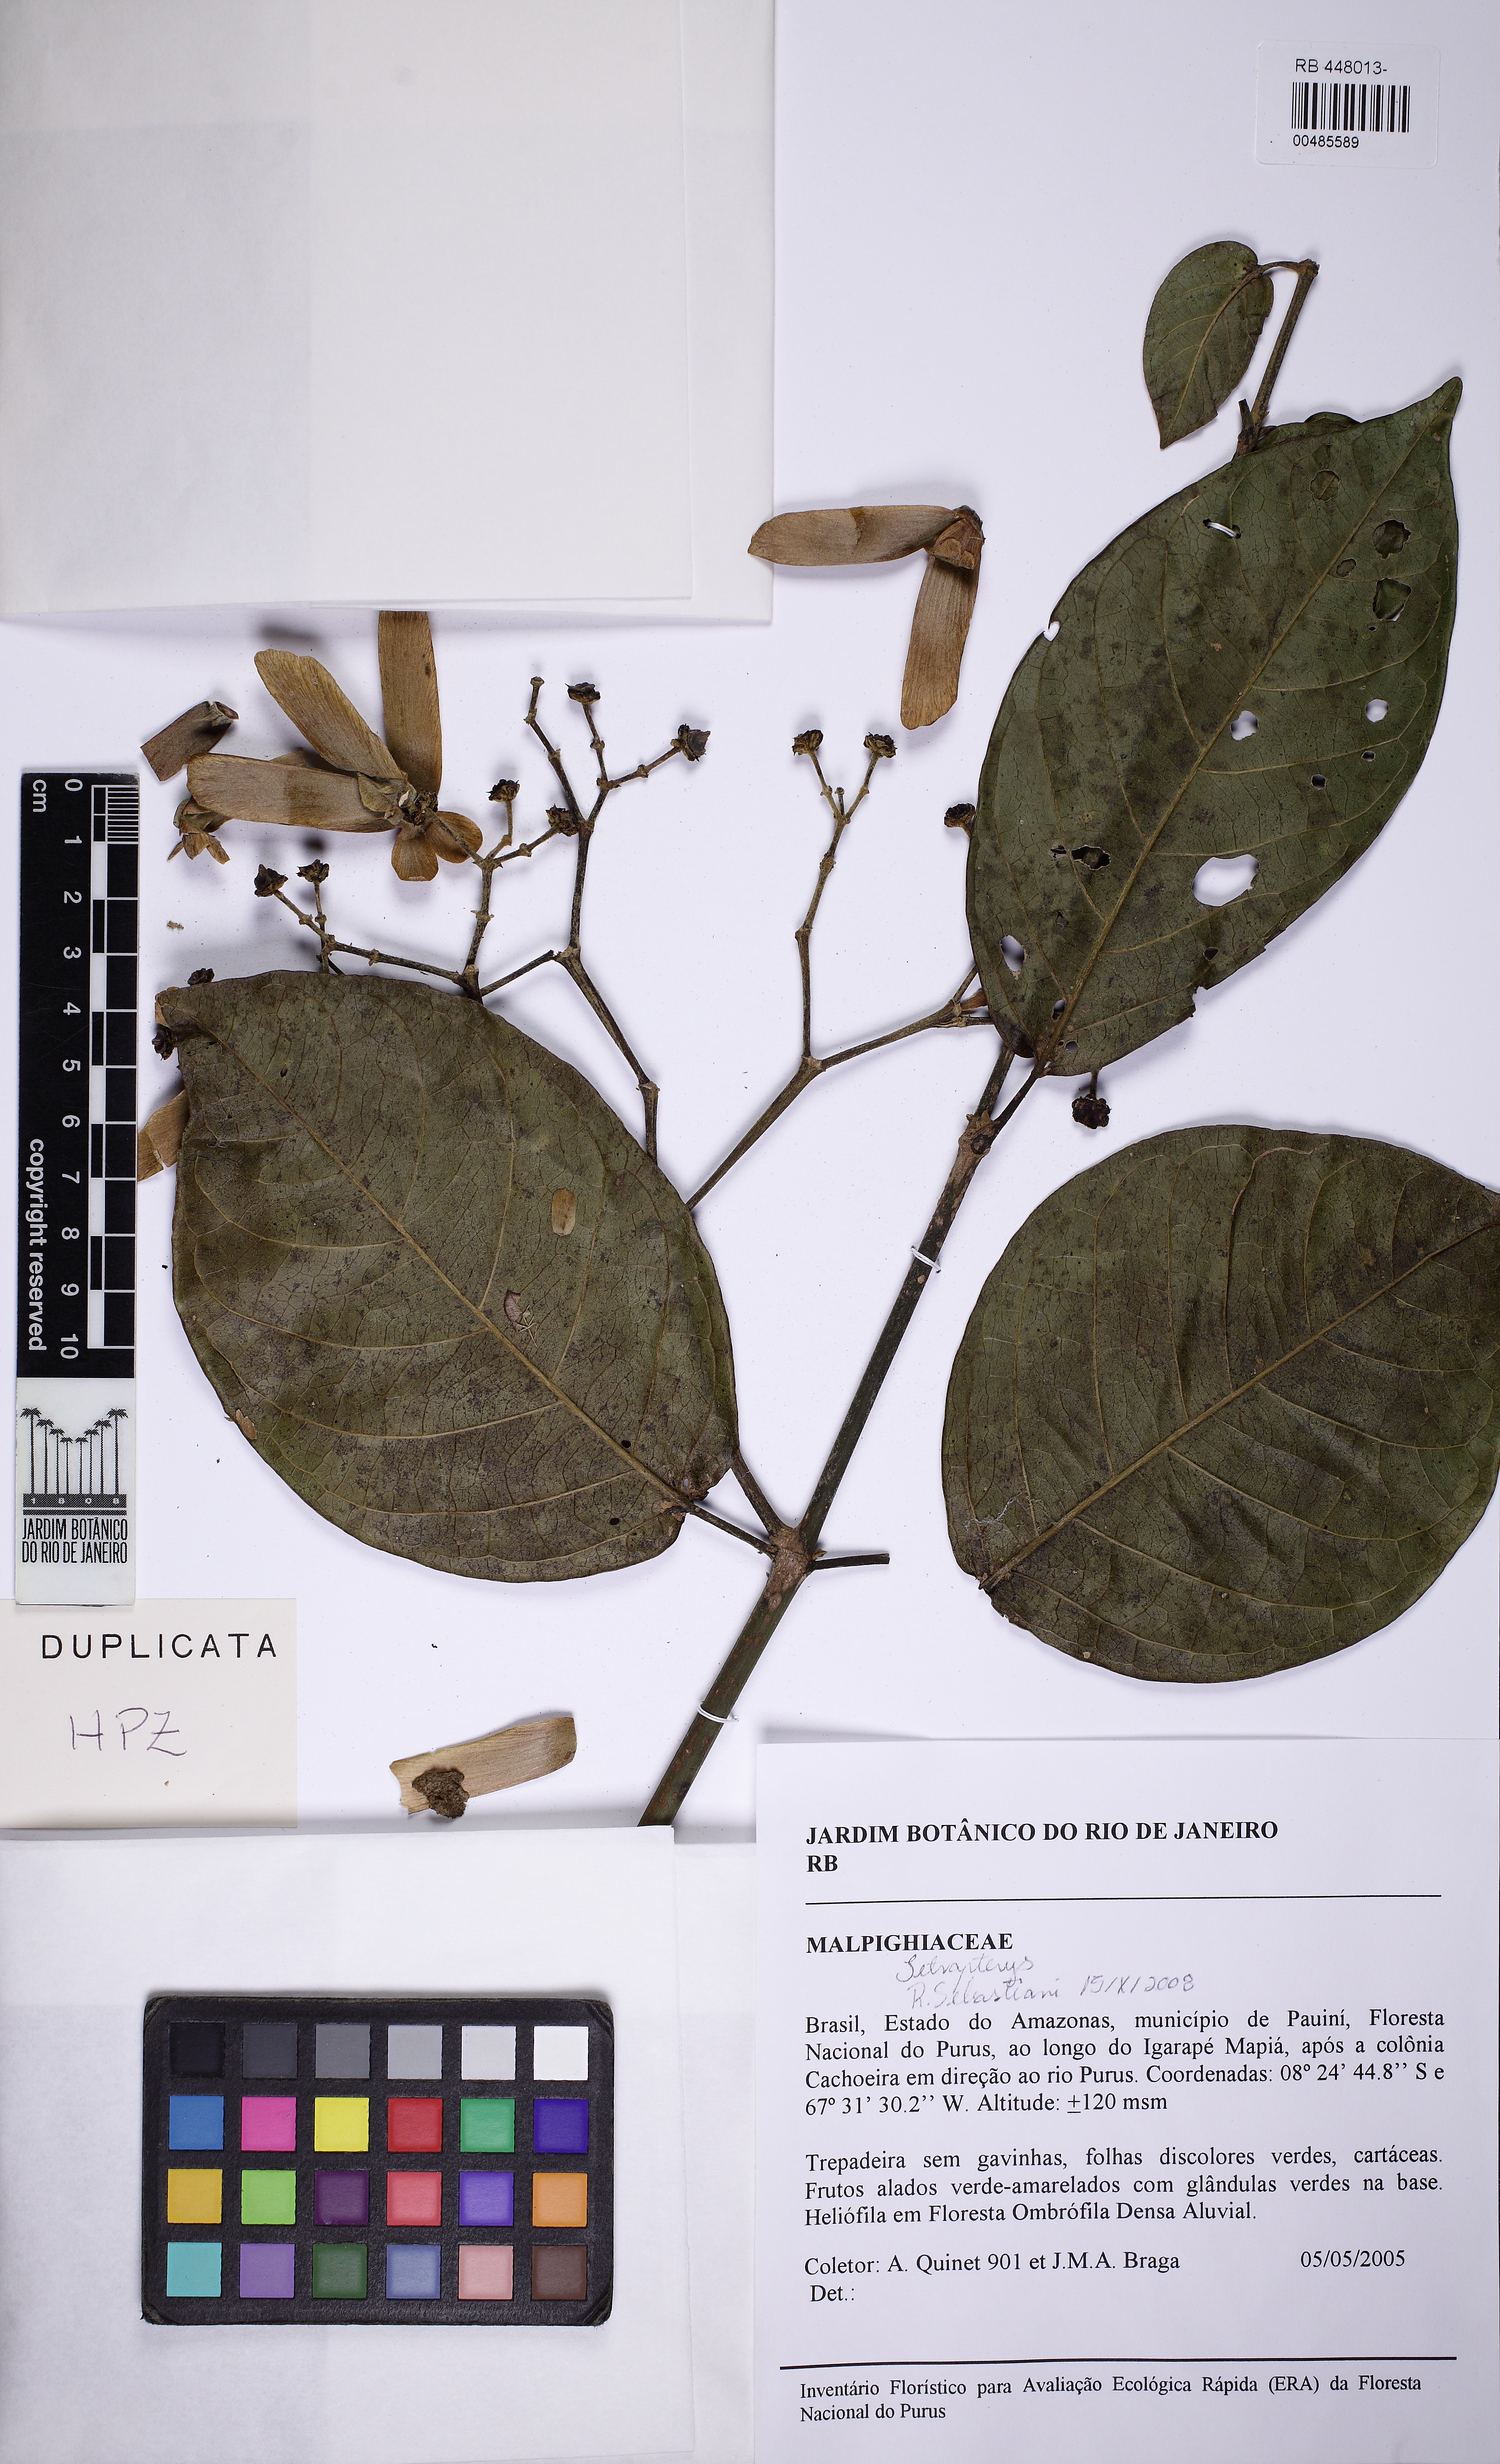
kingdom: Plantae
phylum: Tracheophyta
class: Magnoliopsida
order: Malpighiales
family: Malpighiaceae
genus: Lophopterys
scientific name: Lophopterys
